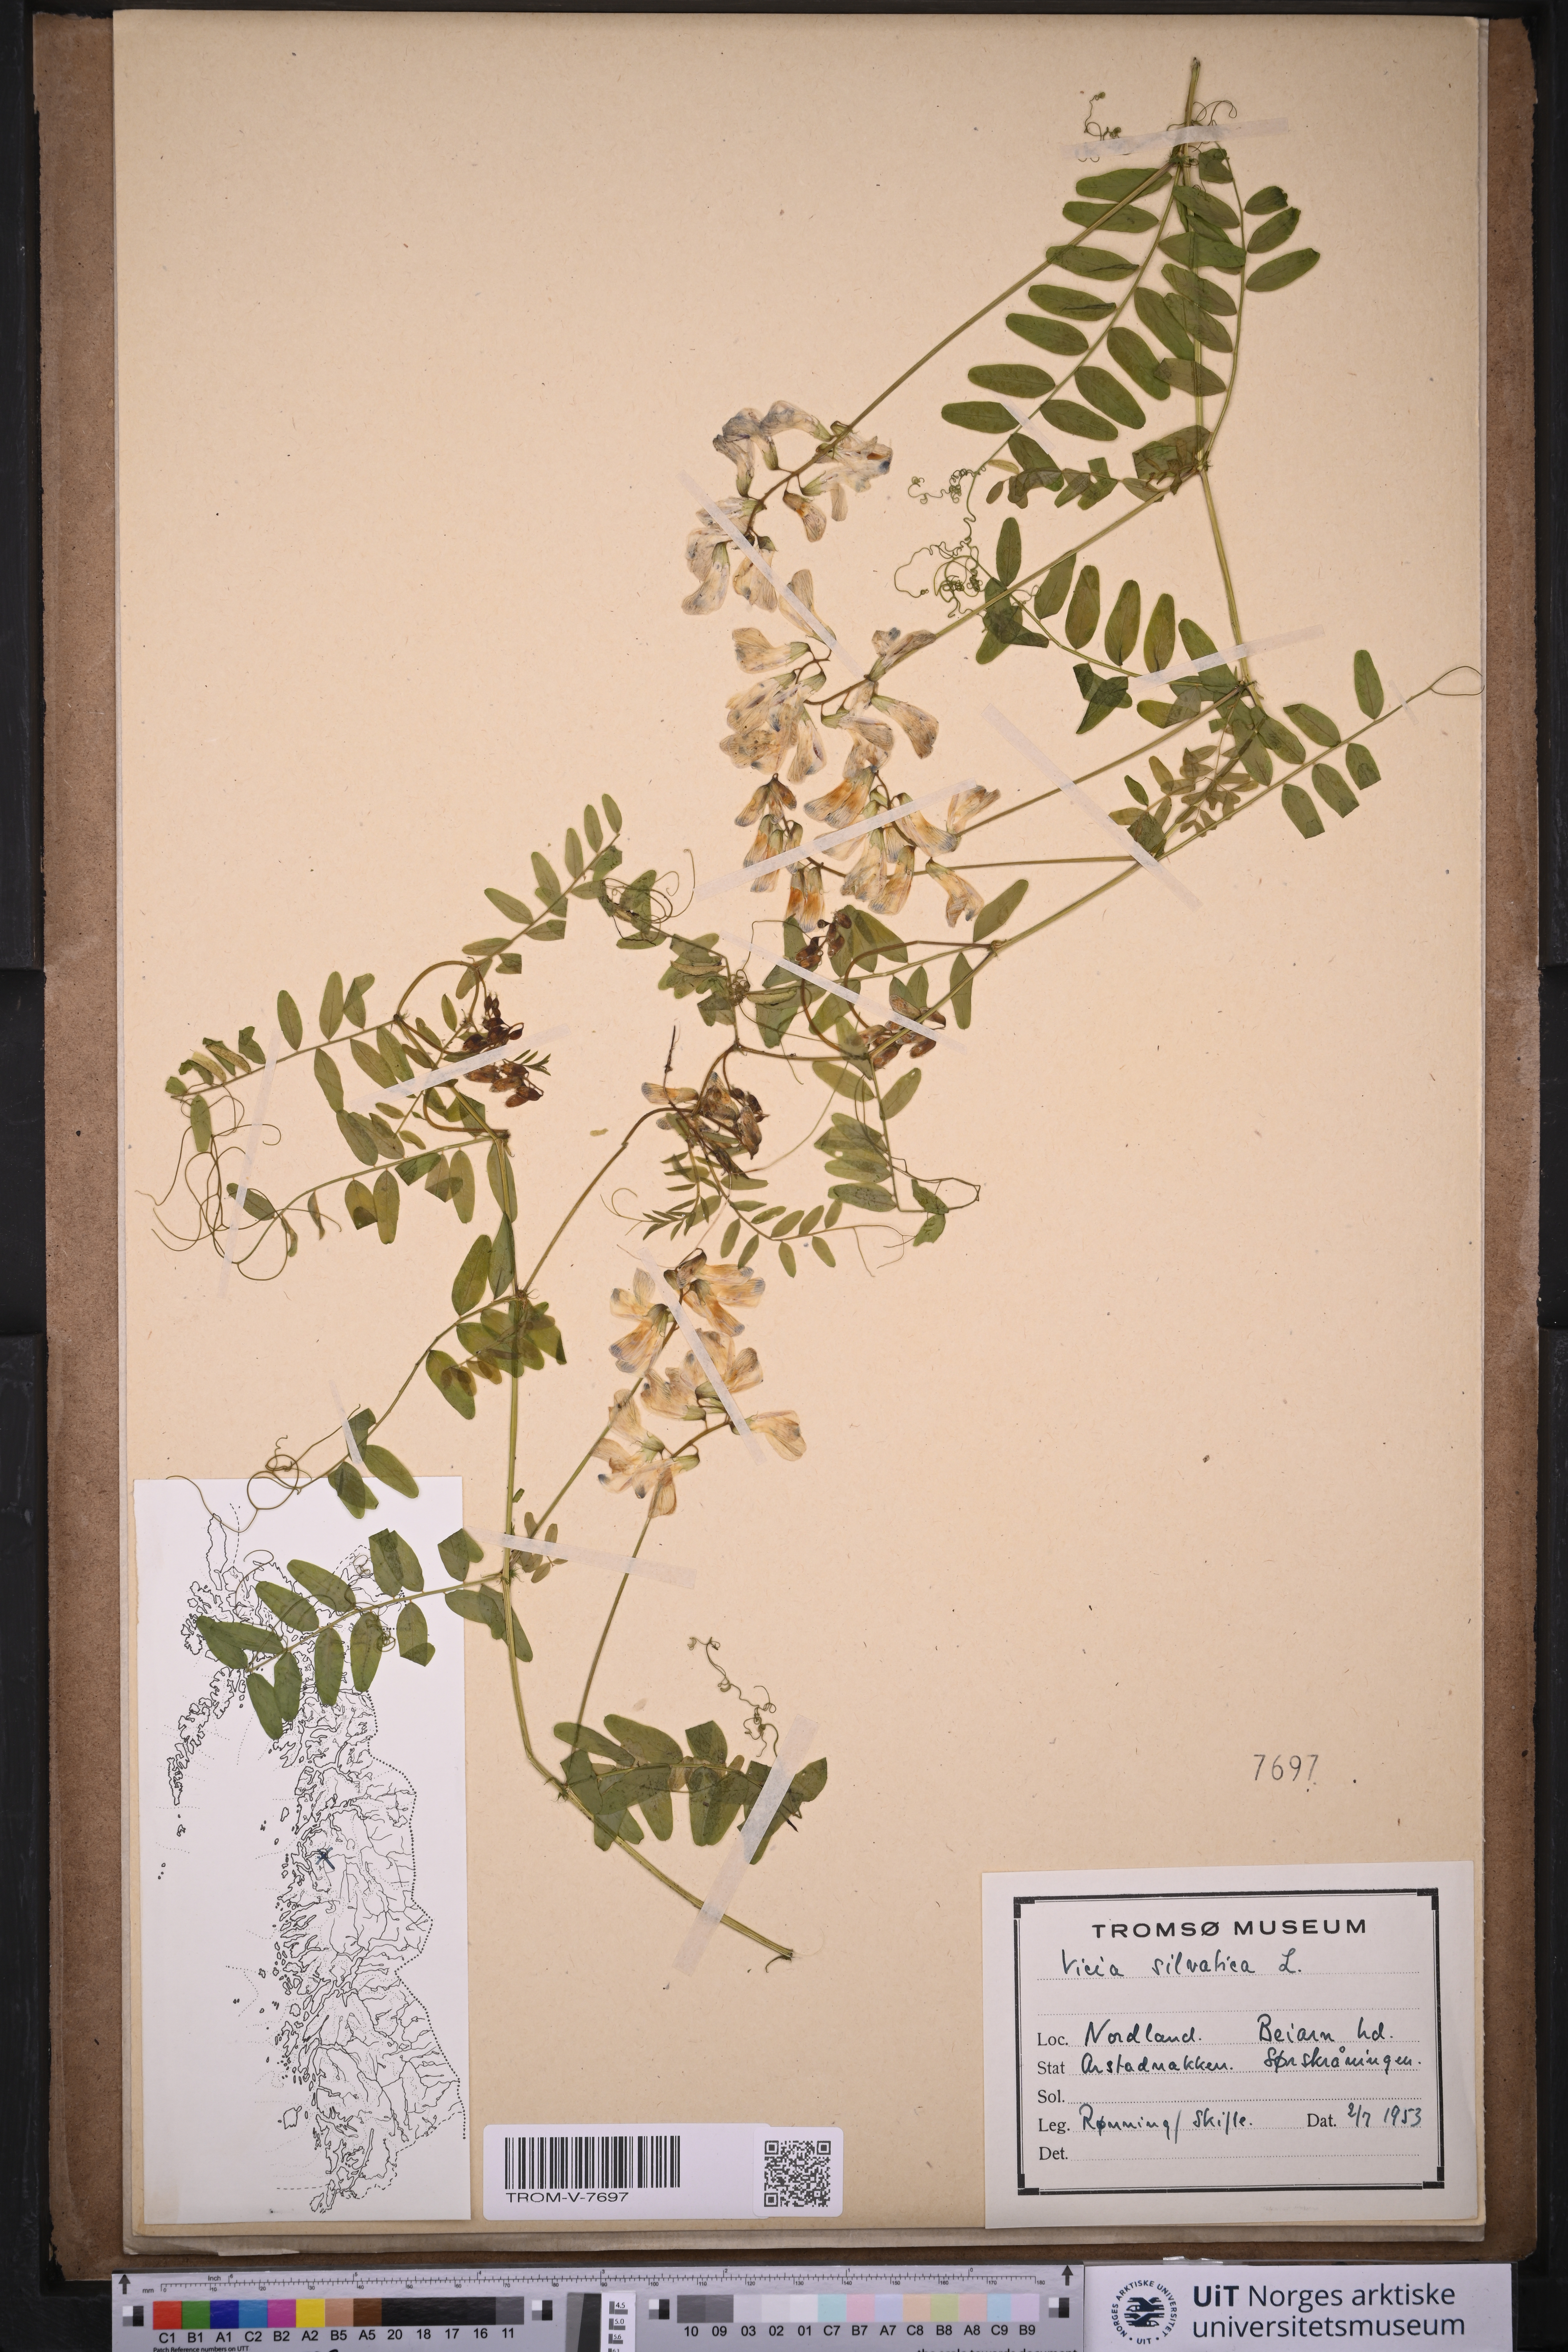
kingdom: Plantae
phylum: Tracheophyta
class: Magnoliopsida
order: Fabales
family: Fabaceae
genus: Vicia
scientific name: Vicia sylvatica
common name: Wood vetch
